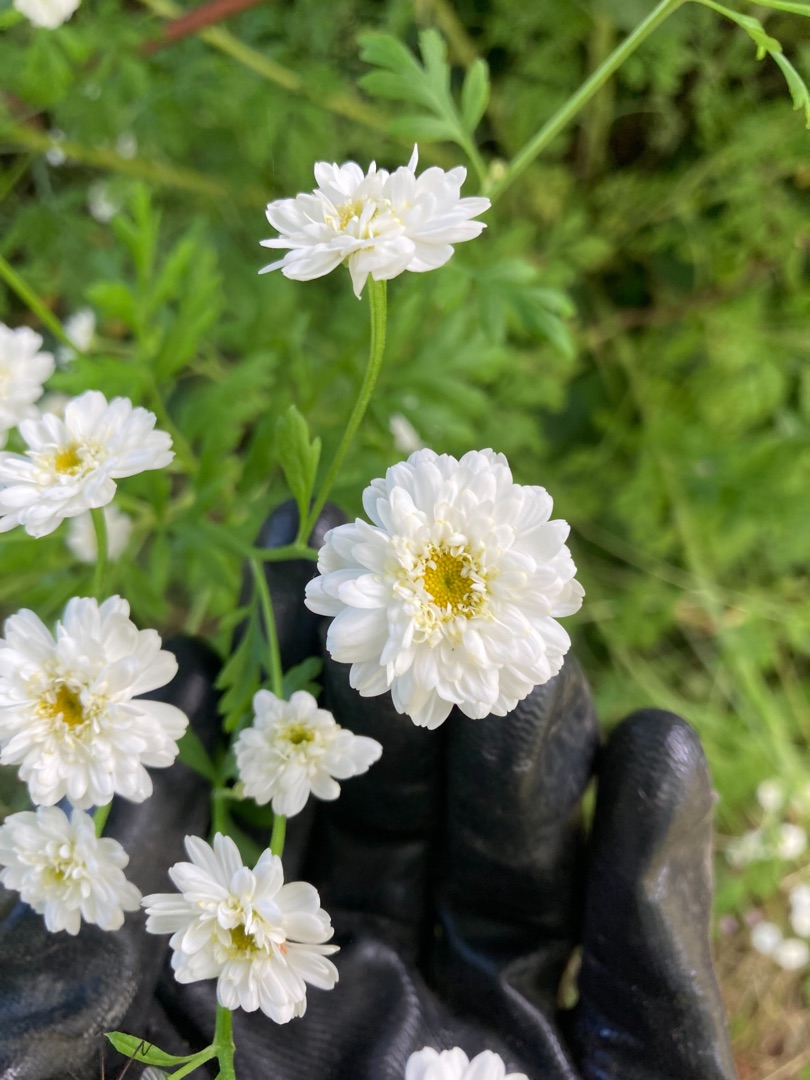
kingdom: Plantae
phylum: Tracheophyta
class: Magnoliopsida
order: Asterales
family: Asteraceae
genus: Tanacetum
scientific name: Tanacetum parthenium
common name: Matrem
